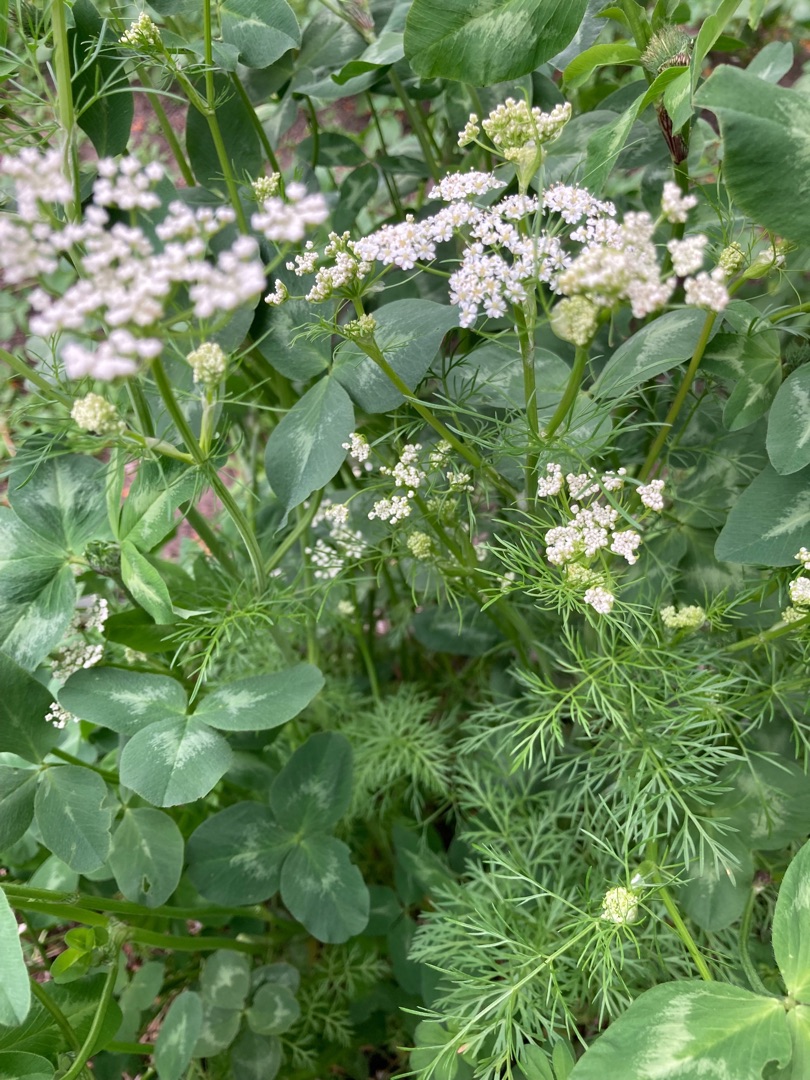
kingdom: Plantae
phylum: Tracheophyta
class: Magnoliopsida
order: Apiales
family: Apiaceae
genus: Carum
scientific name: Carum carvi
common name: Kommen
